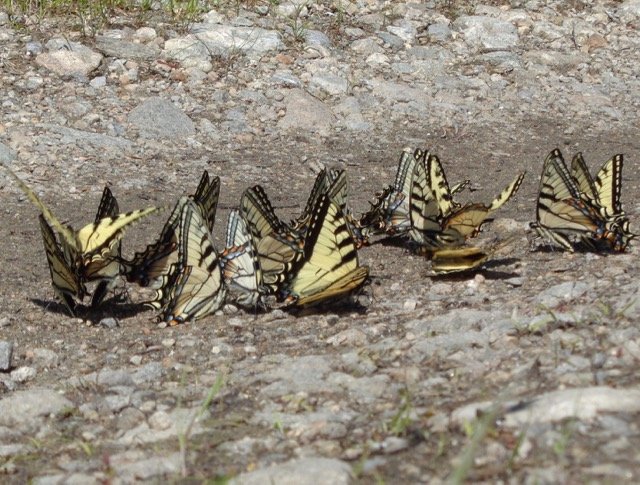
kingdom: Animalia
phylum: Arthropoda
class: Insecta
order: Lepidoptera
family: Papilionidae
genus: Pterourus
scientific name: Pterourus canadensis
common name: Canadian Tiger Swallowtail
